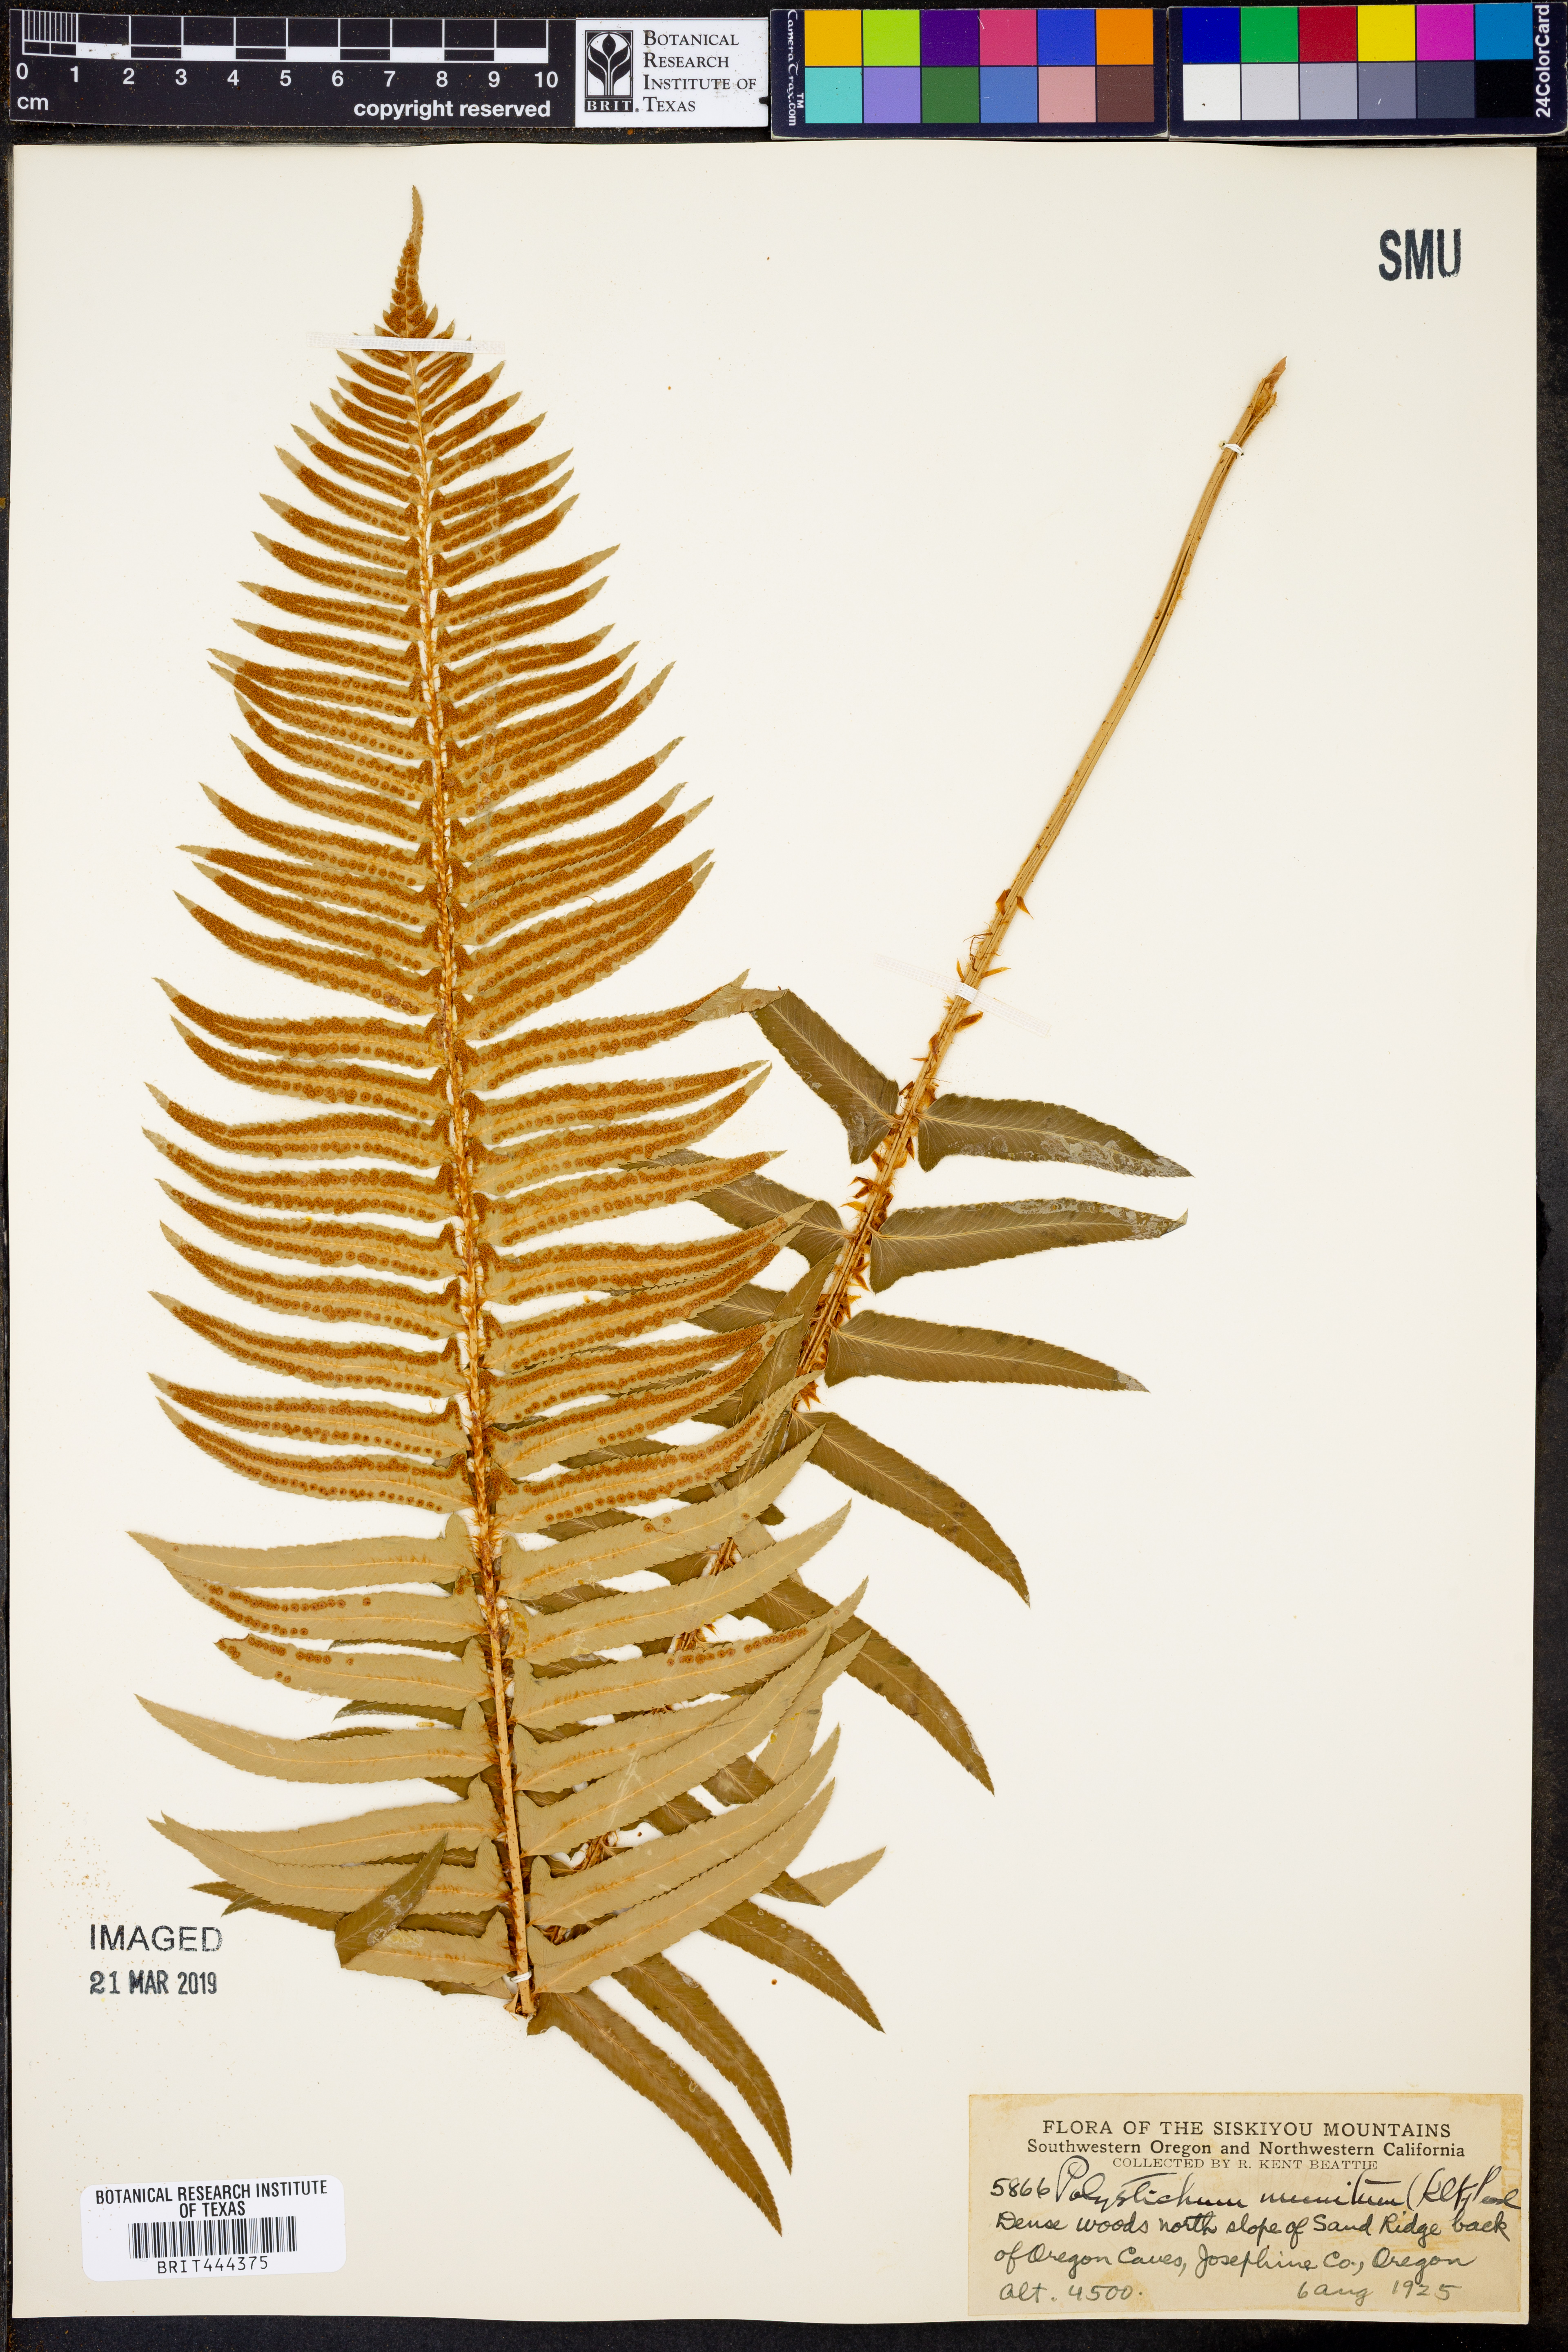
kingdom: Plantae
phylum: Tracheophyta
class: Polypodiopsida
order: Polypodiales
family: Dryopteridaceae
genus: Polystichum
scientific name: Polystichum munitum
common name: Western sword-fern
